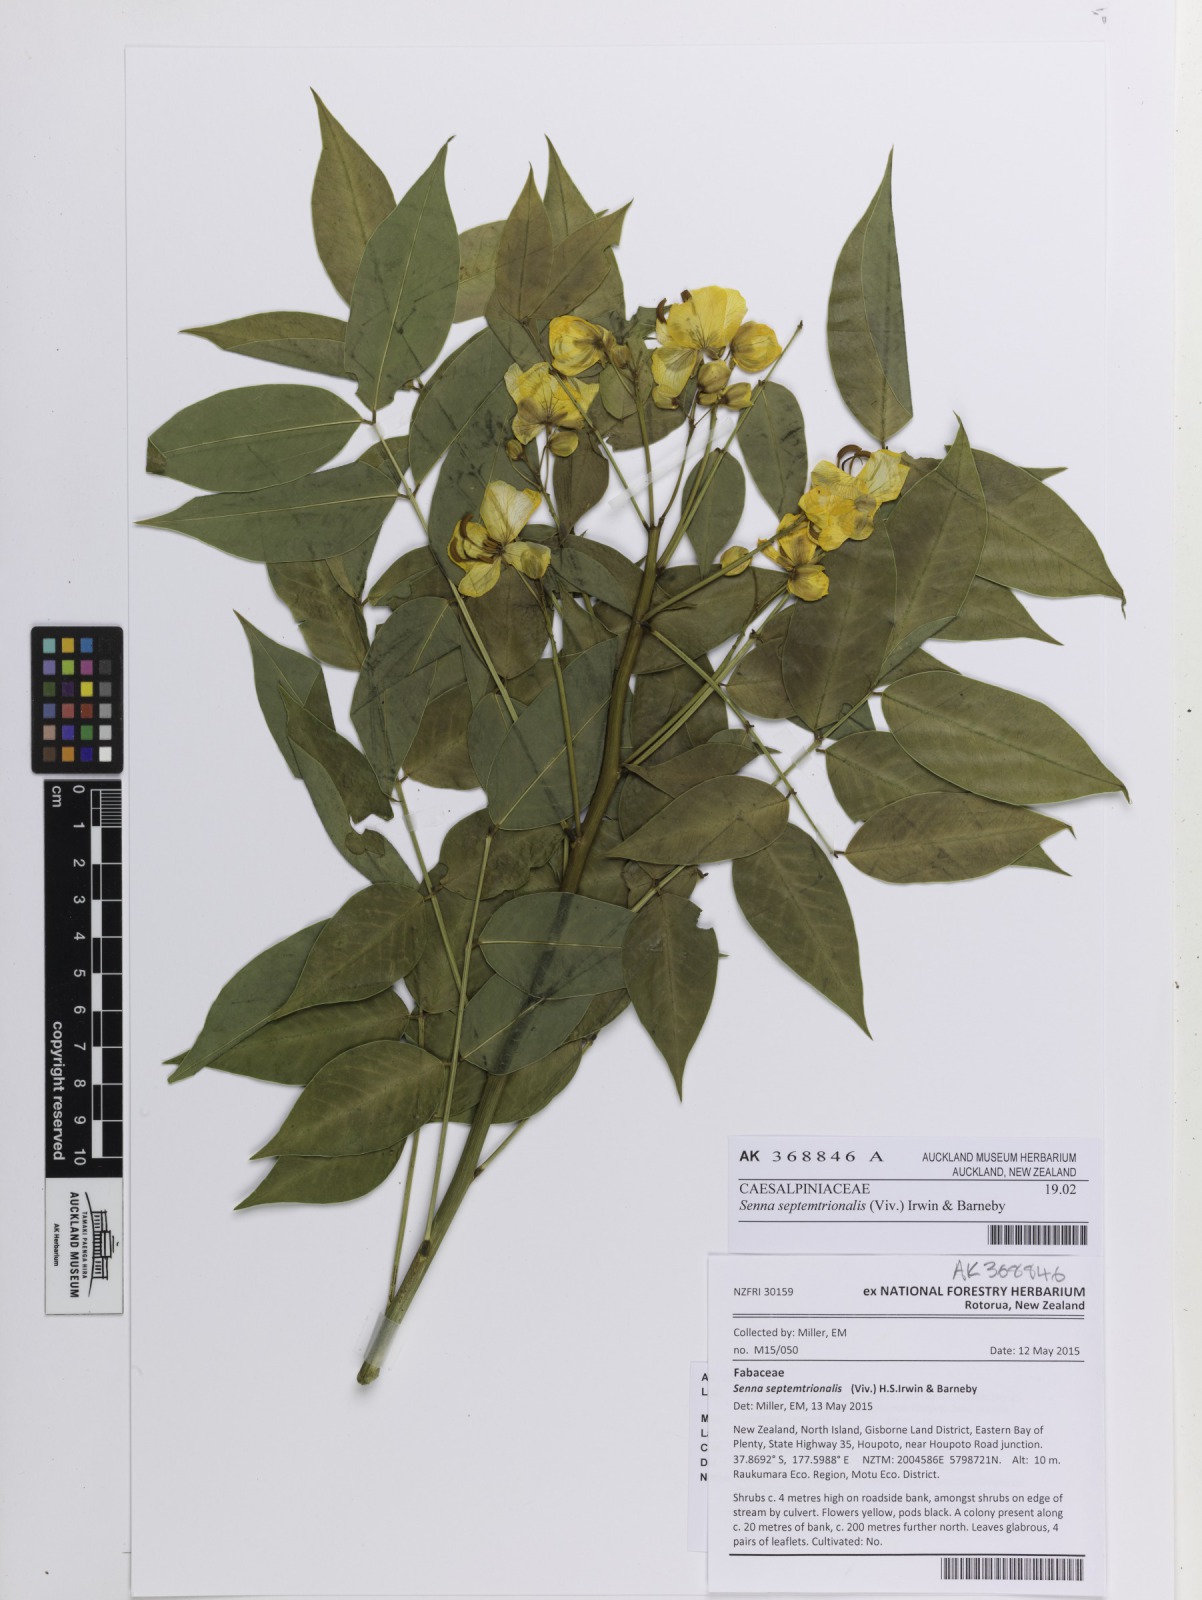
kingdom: Plantae
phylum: Tracheophyta
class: Magnoliopsida
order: Fabales
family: Fabaceae
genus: Senna
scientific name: Senna septemtrionalis
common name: Arsenic bush
